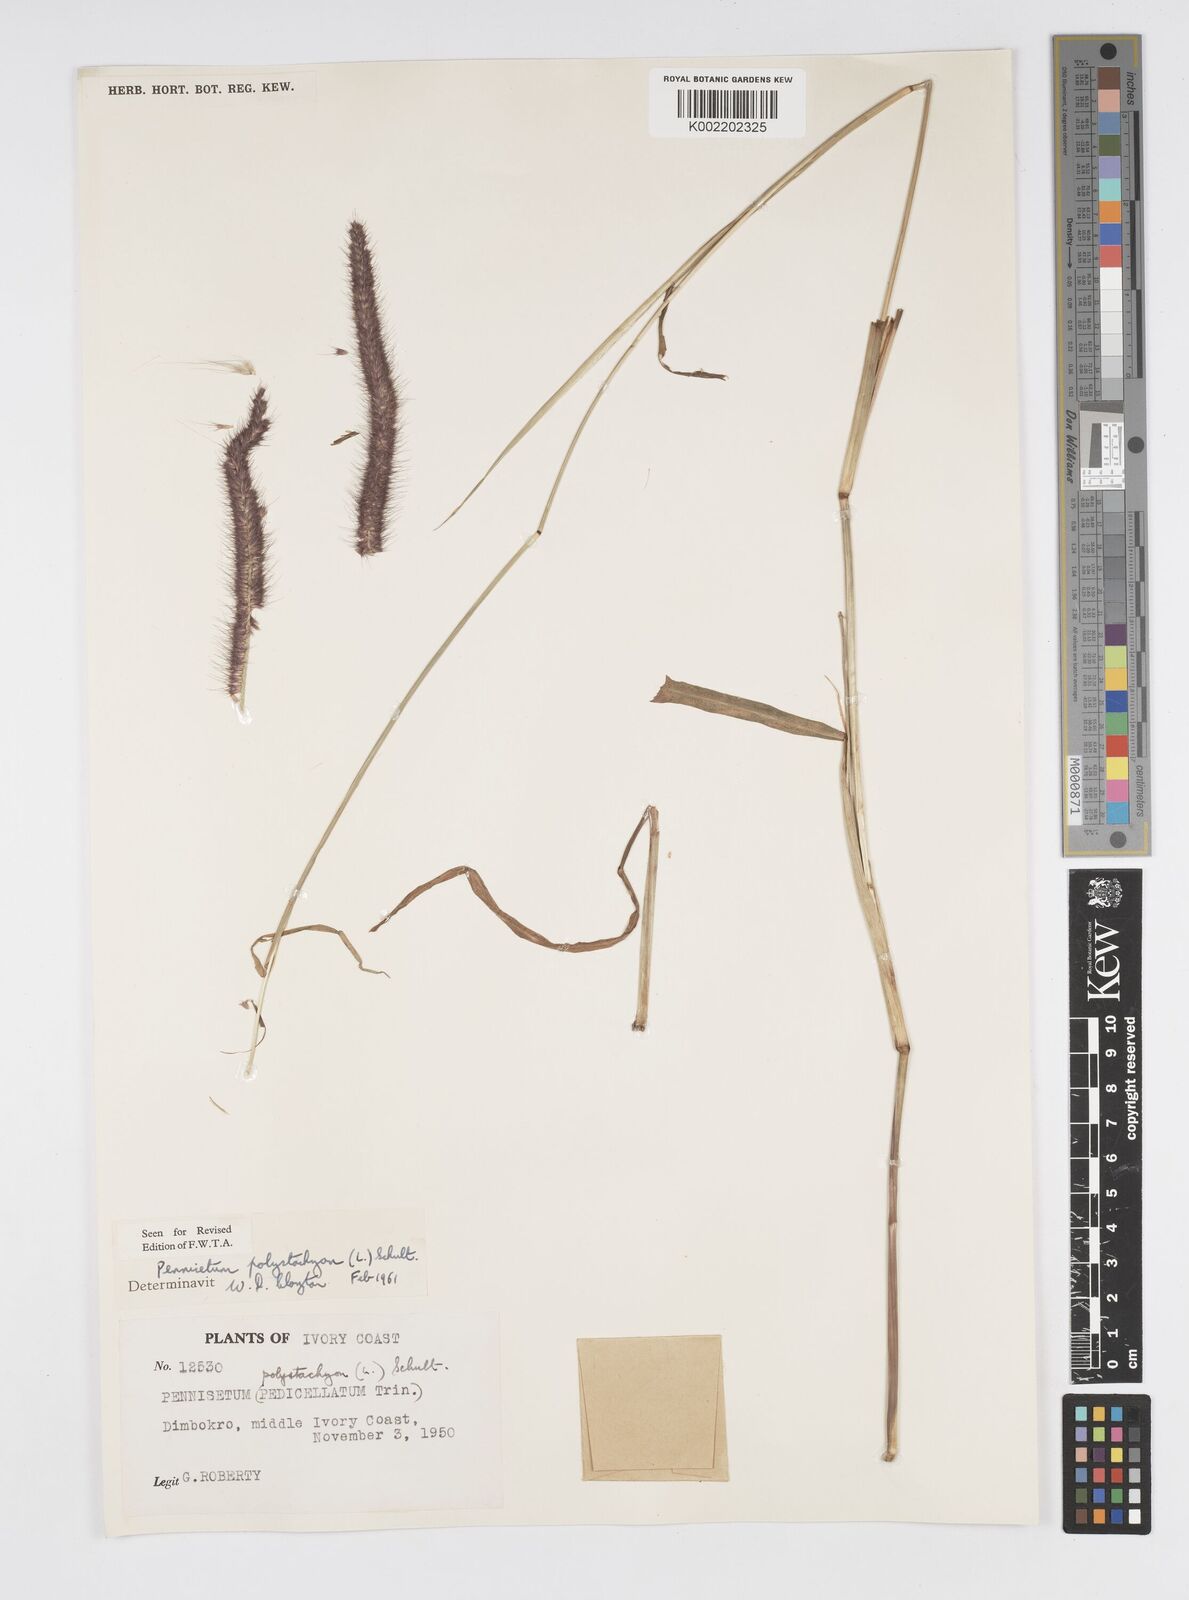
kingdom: Plantae
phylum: Tracheophyta
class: Liliopsida
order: Poales
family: Poaceae
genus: Setaria
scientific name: Setaria parviflora
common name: Knotroot bristle-grass
